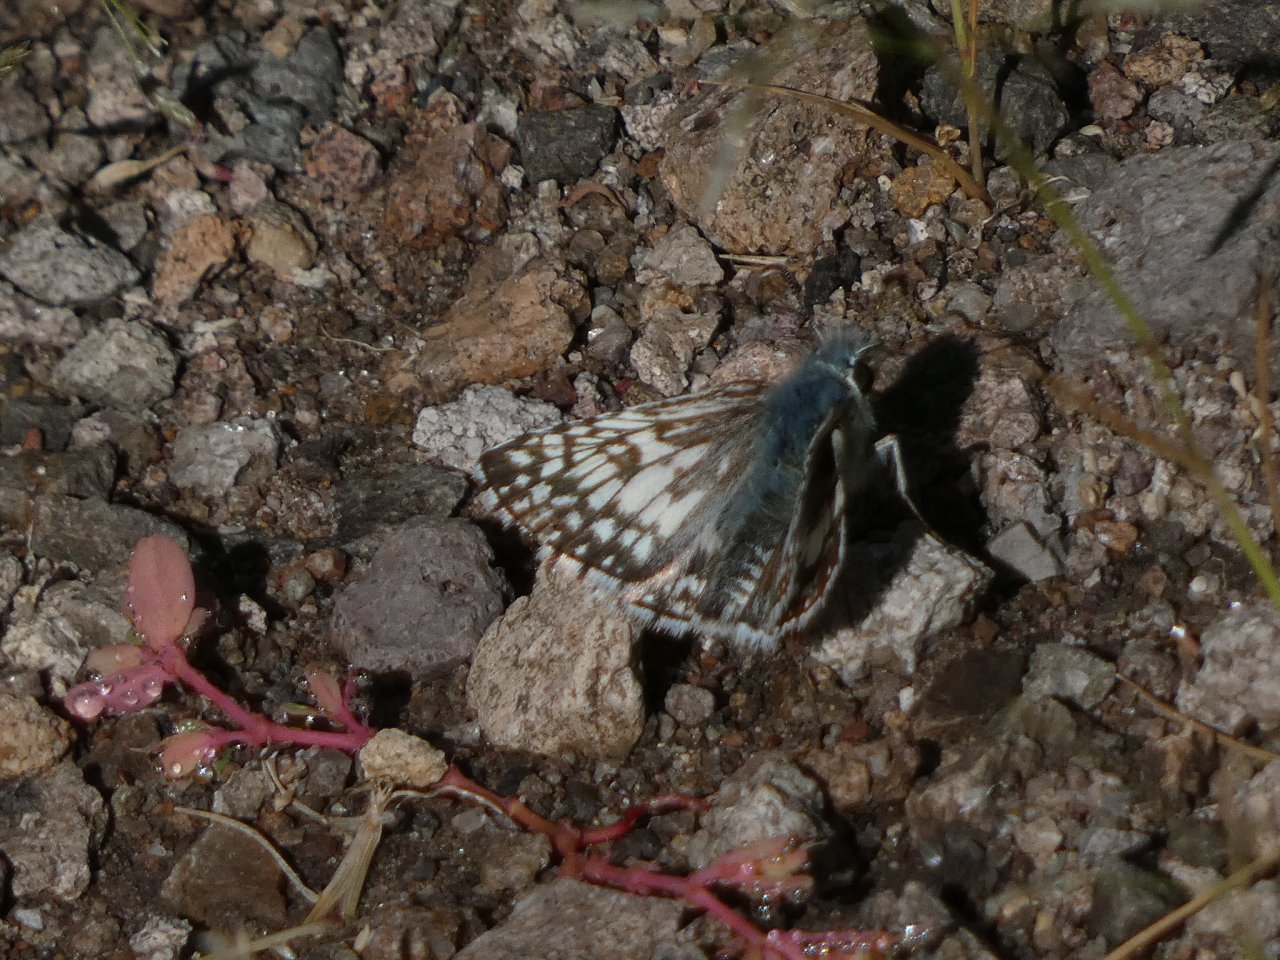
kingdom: Animalia
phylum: Arthropoda
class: Insecta
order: Lepidoptera
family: Hesperiidae
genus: Pyrgus
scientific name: Pyrgus communis
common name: Common Checkered-Skipper
